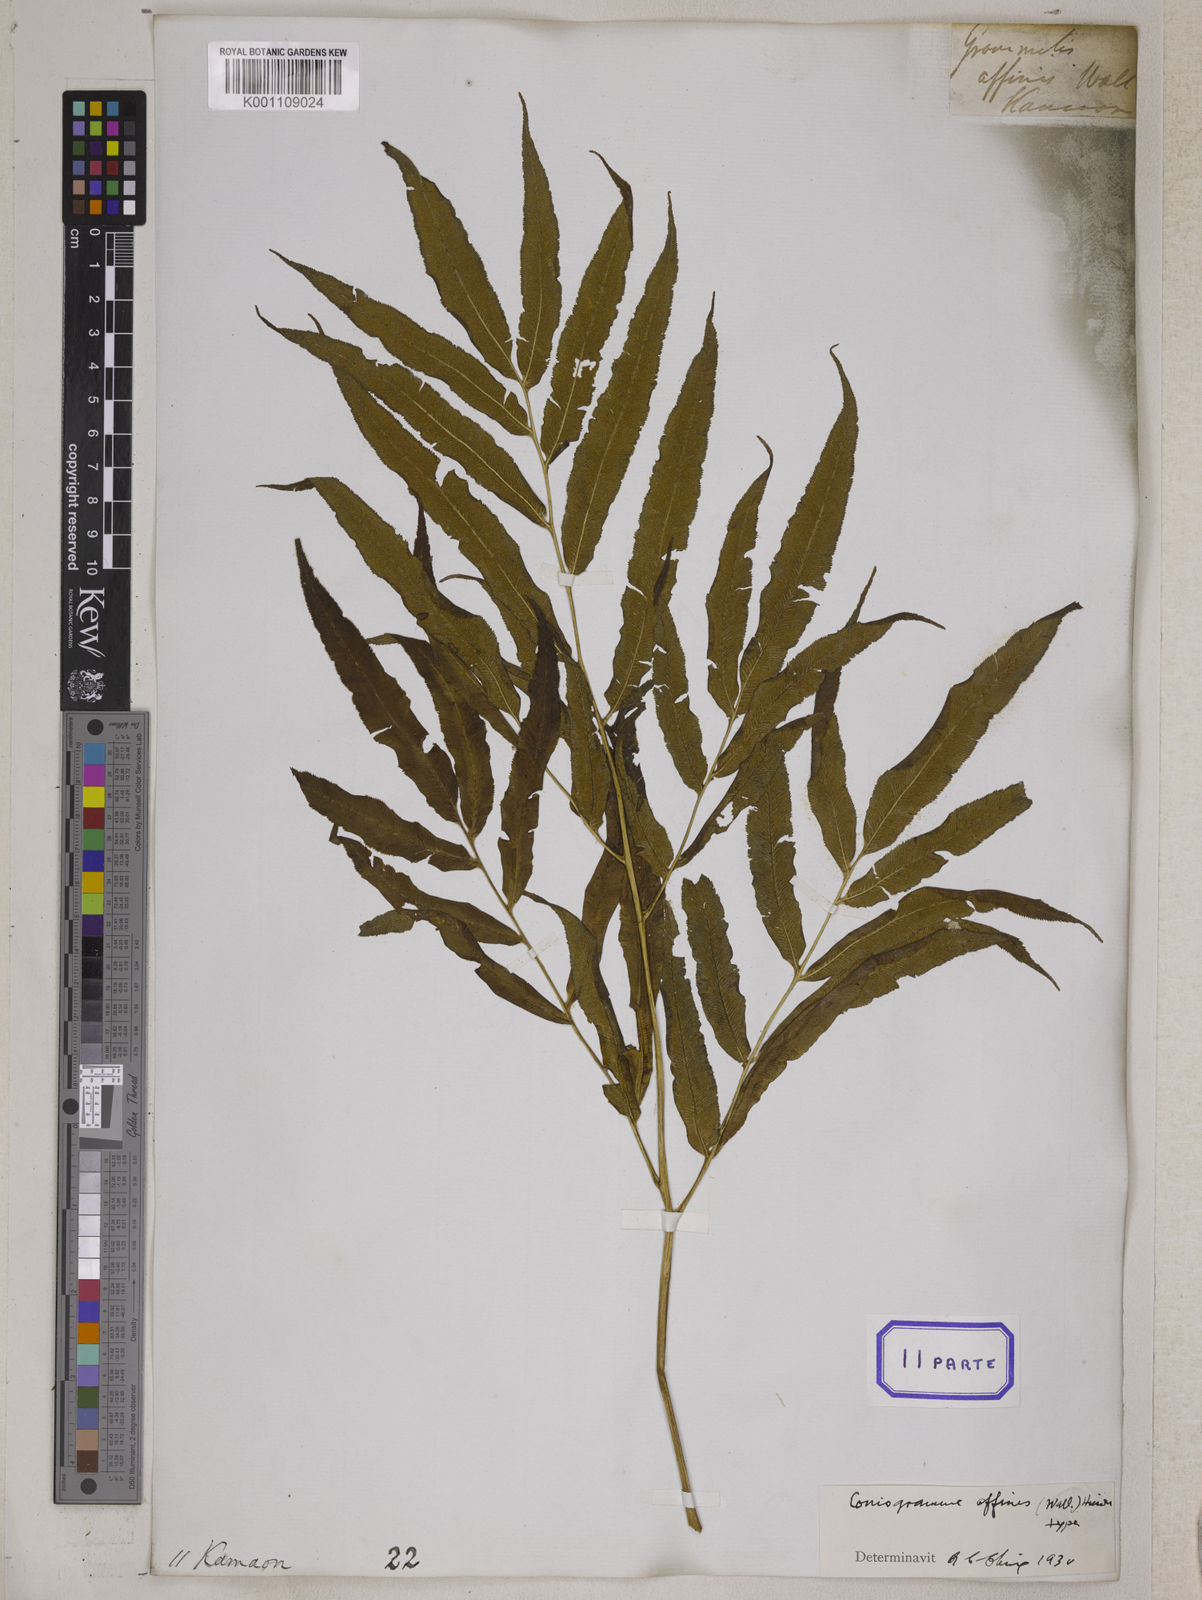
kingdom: Plantae
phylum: Tracheophyta
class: Polypodiopsida
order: Polypodiales
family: Pteridaceae
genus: Coniogramme
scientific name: Coniogramme affinis
